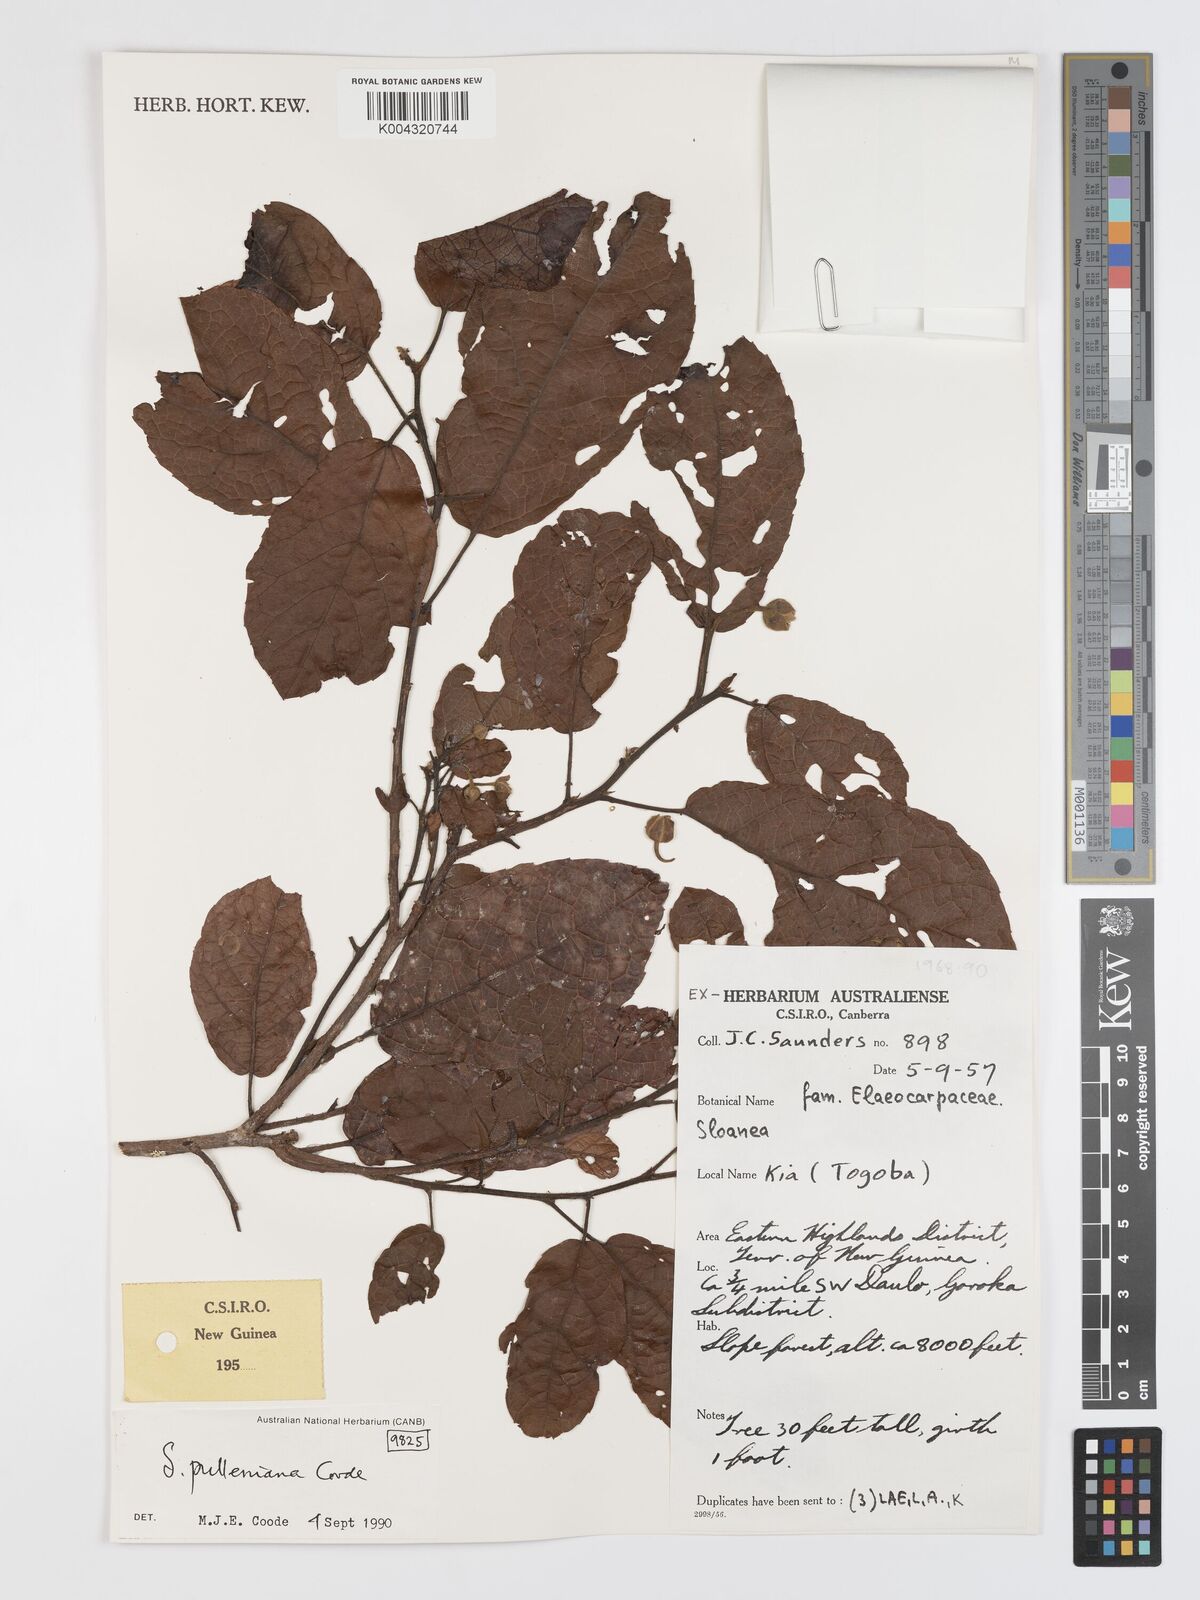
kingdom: Plantae
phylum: Tracheophyta
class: Magnoliopsida
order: Oxalidales
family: Elaeocarpaceae
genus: Sloanea
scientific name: Sloanea pulleniana
